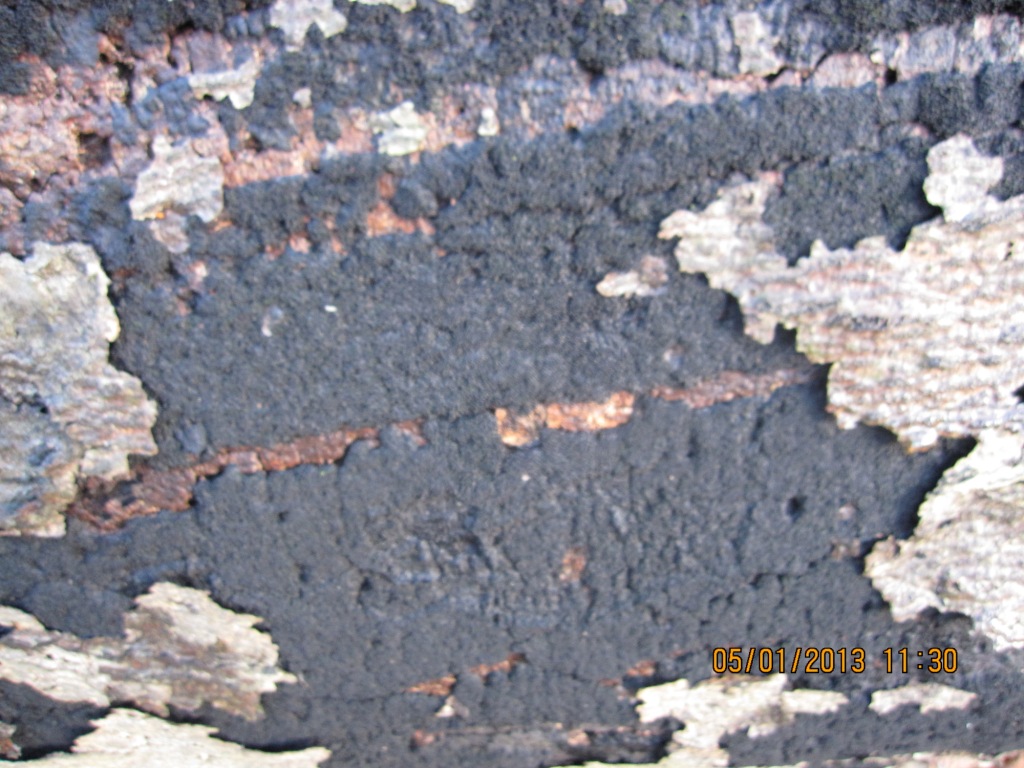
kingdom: Fungi
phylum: Ascomycota
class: Sordariomycetes
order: Xylariales
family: Diatrypaceae
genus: Eutypa
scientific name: Eutypa spinosa
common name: grov kulskorpe
